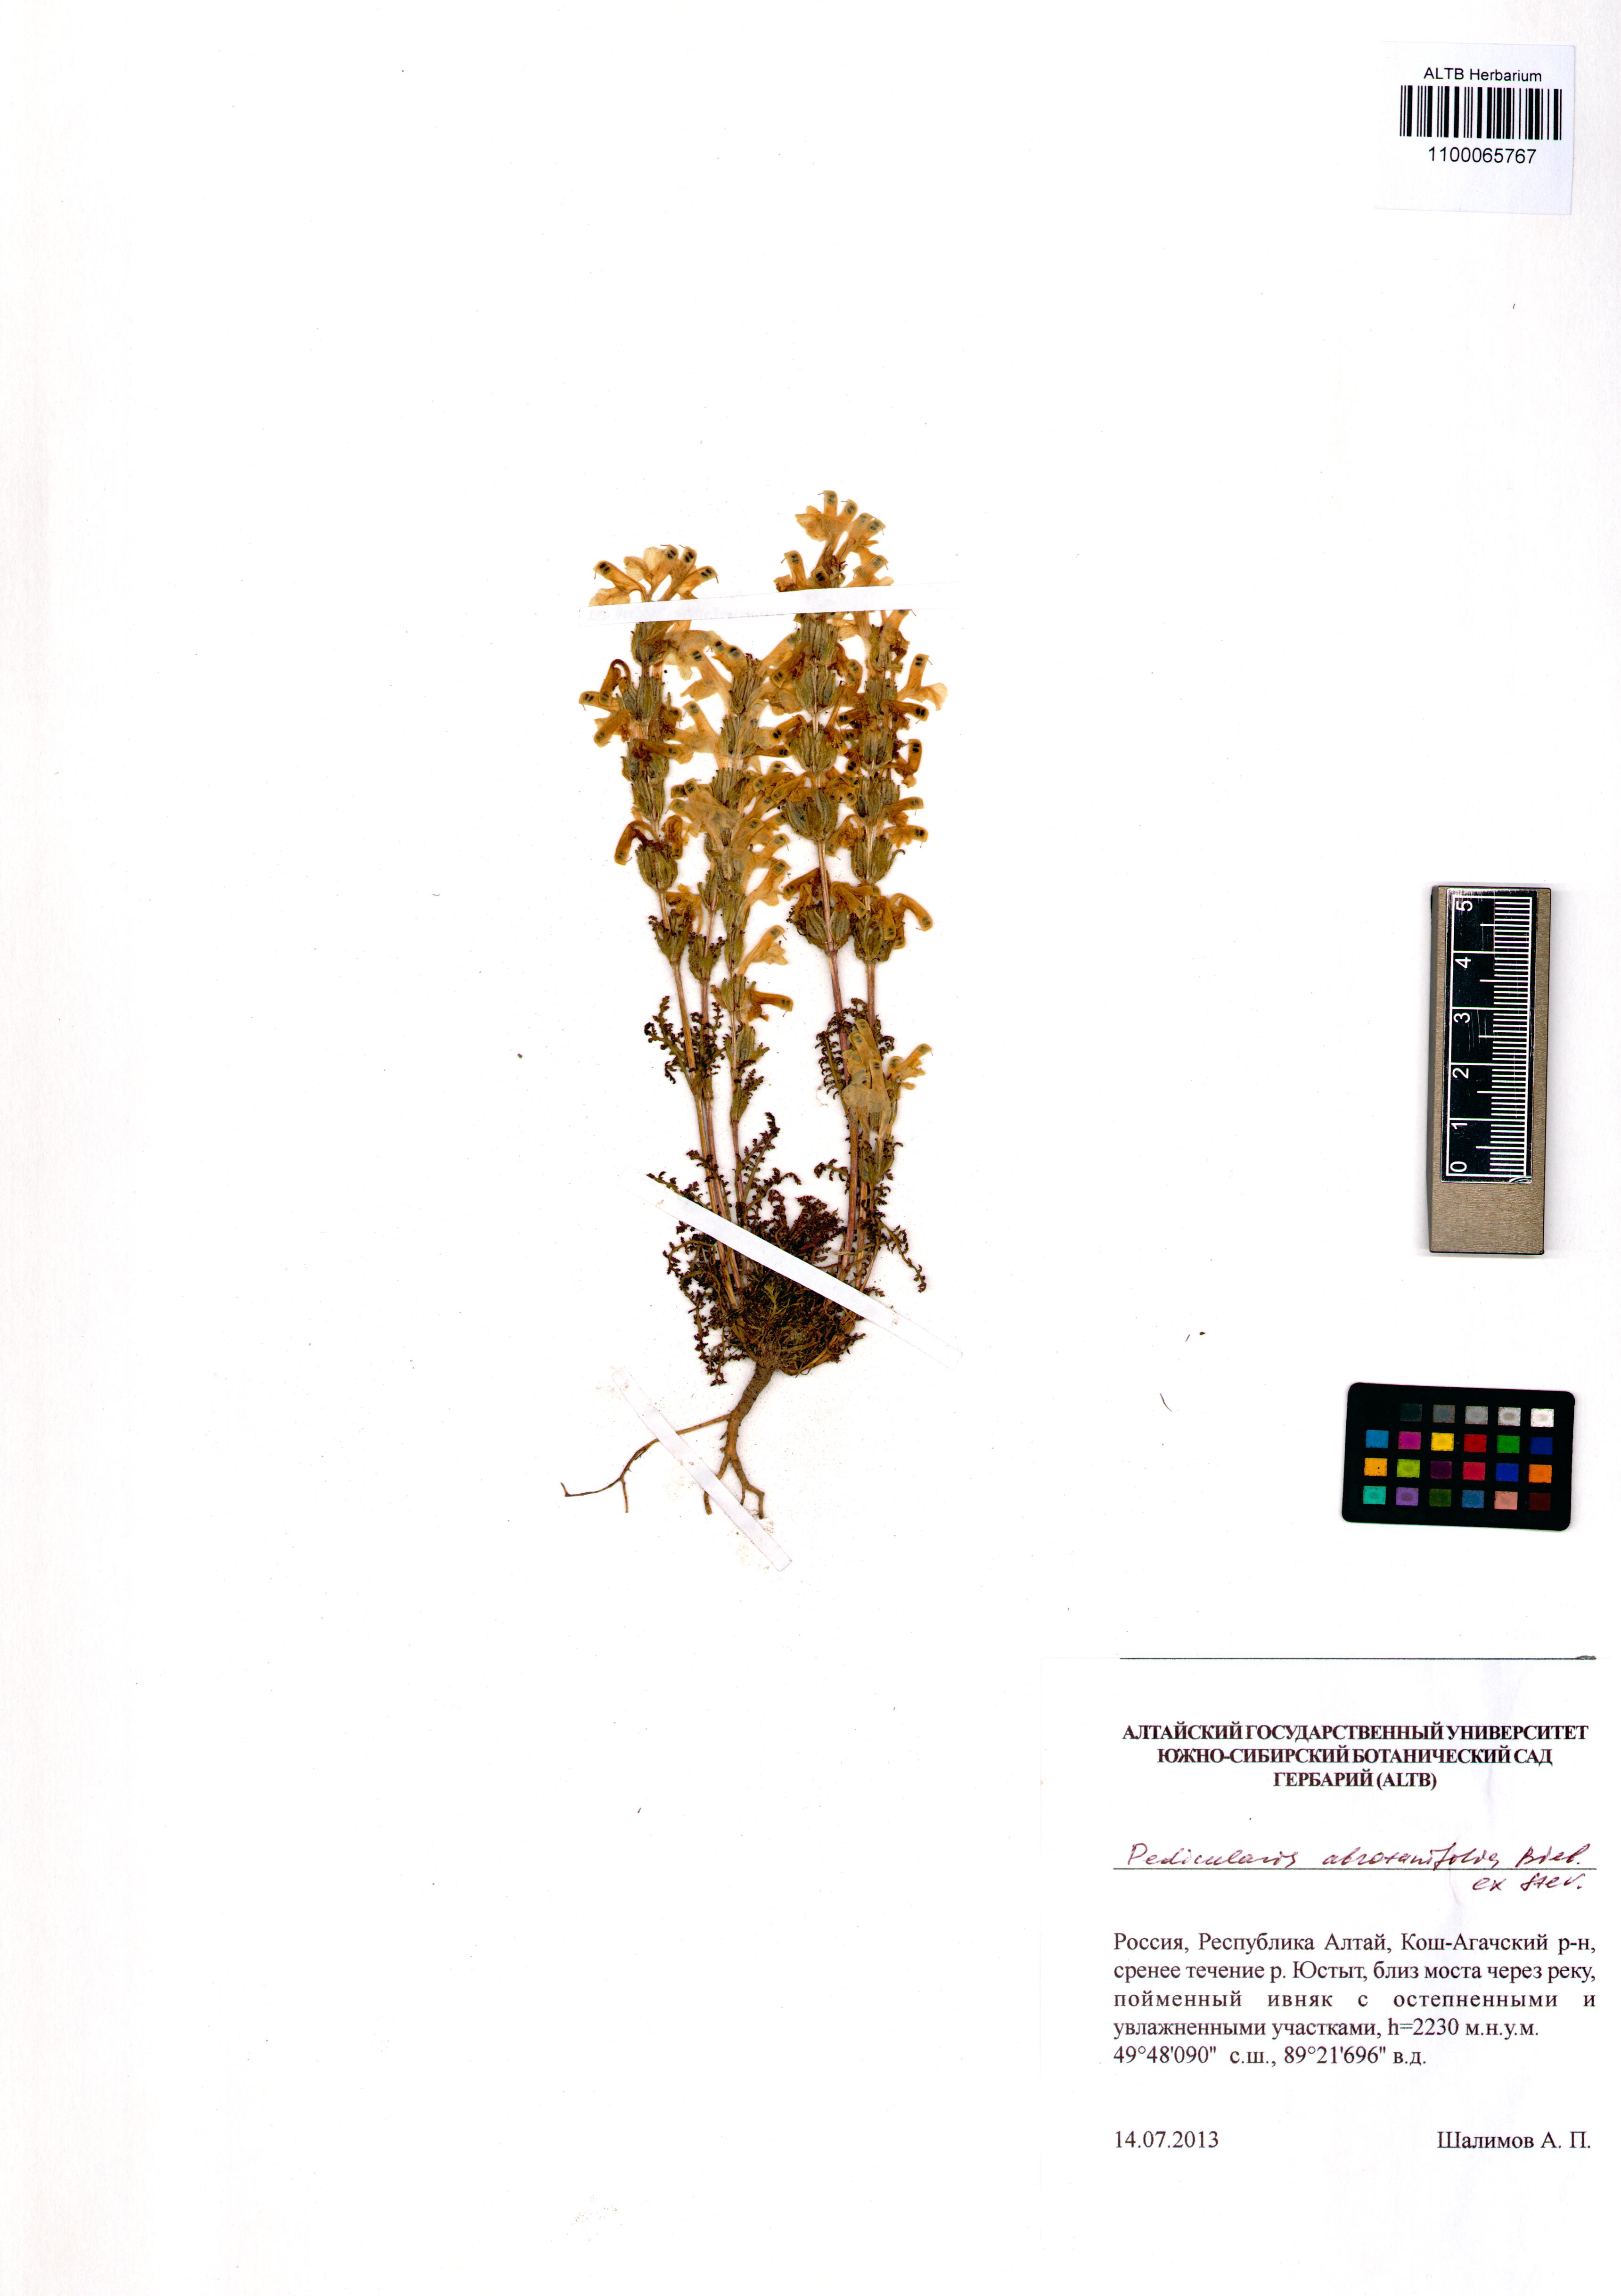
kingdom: Plantae
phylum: Tracheophyta
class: Magnoliopsida
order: Lamiales
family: Orobanchaceae
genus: Pedicularis
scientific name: Pedicularis abrotanifolia
